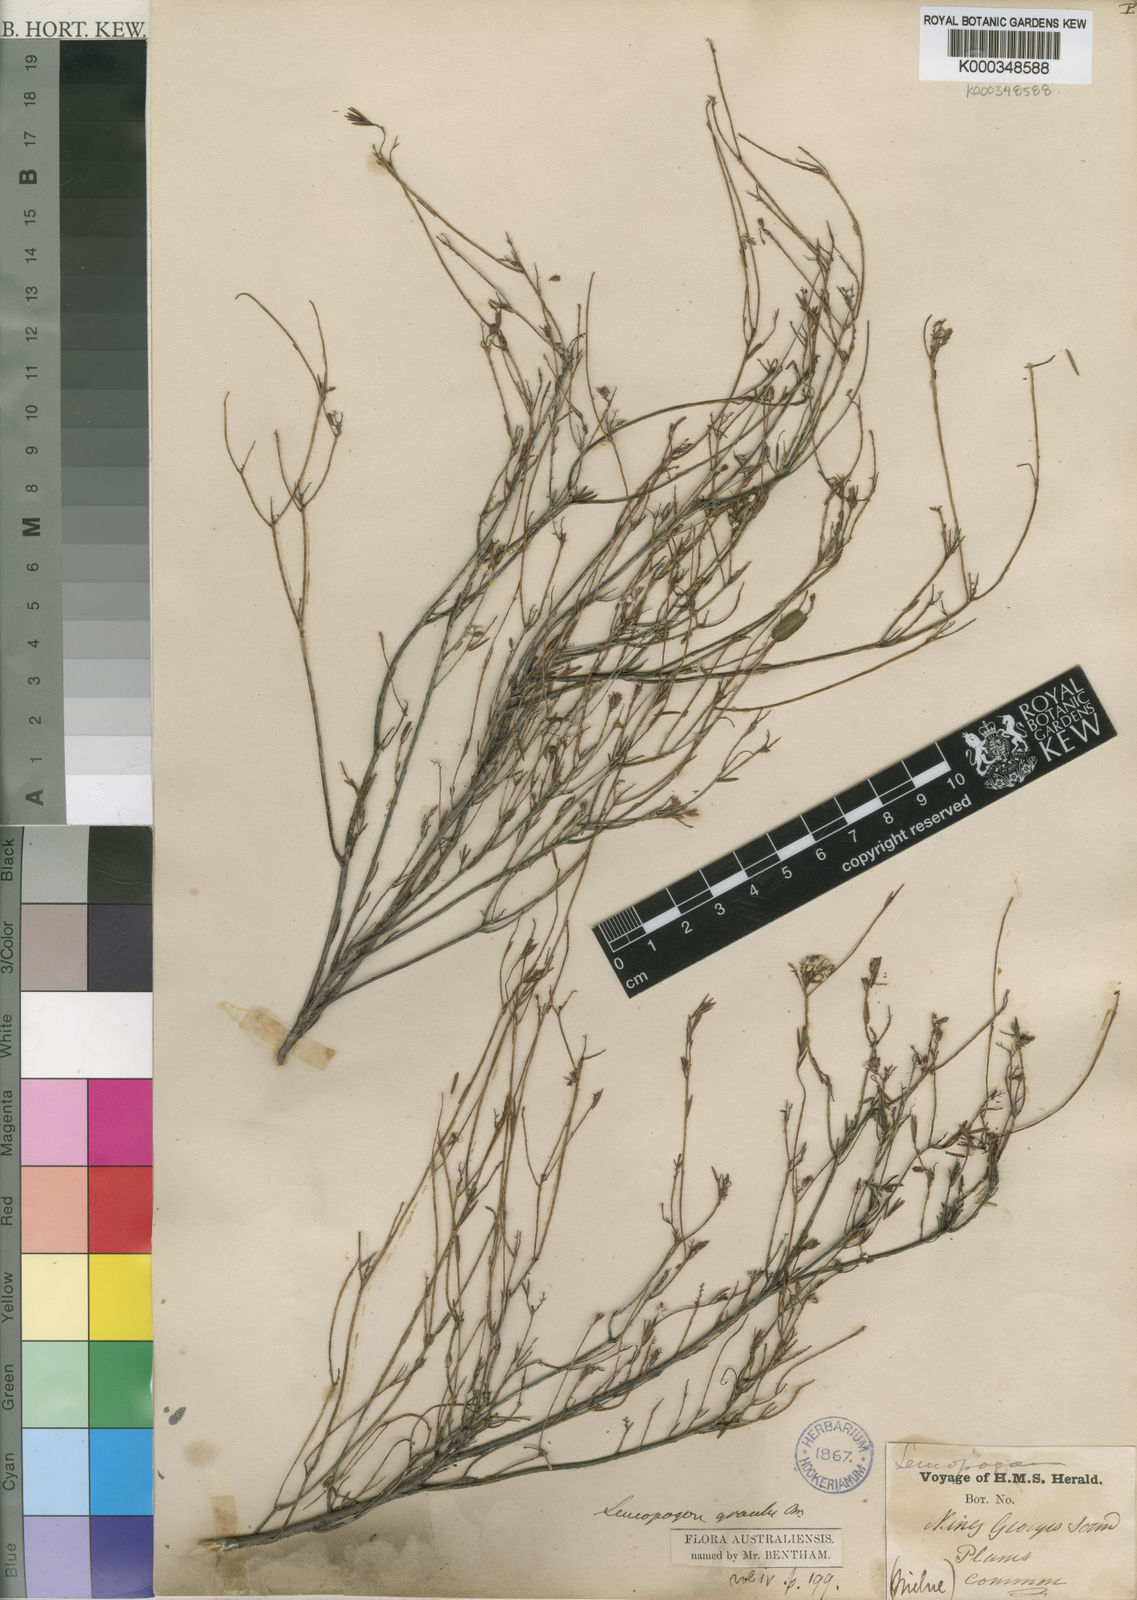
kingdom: Plantae
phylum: Tracheophyta
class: Magnoliopsida
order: Ericales
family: Ericaceae
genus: Leucopogon
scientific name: Leucopogon gracilis
